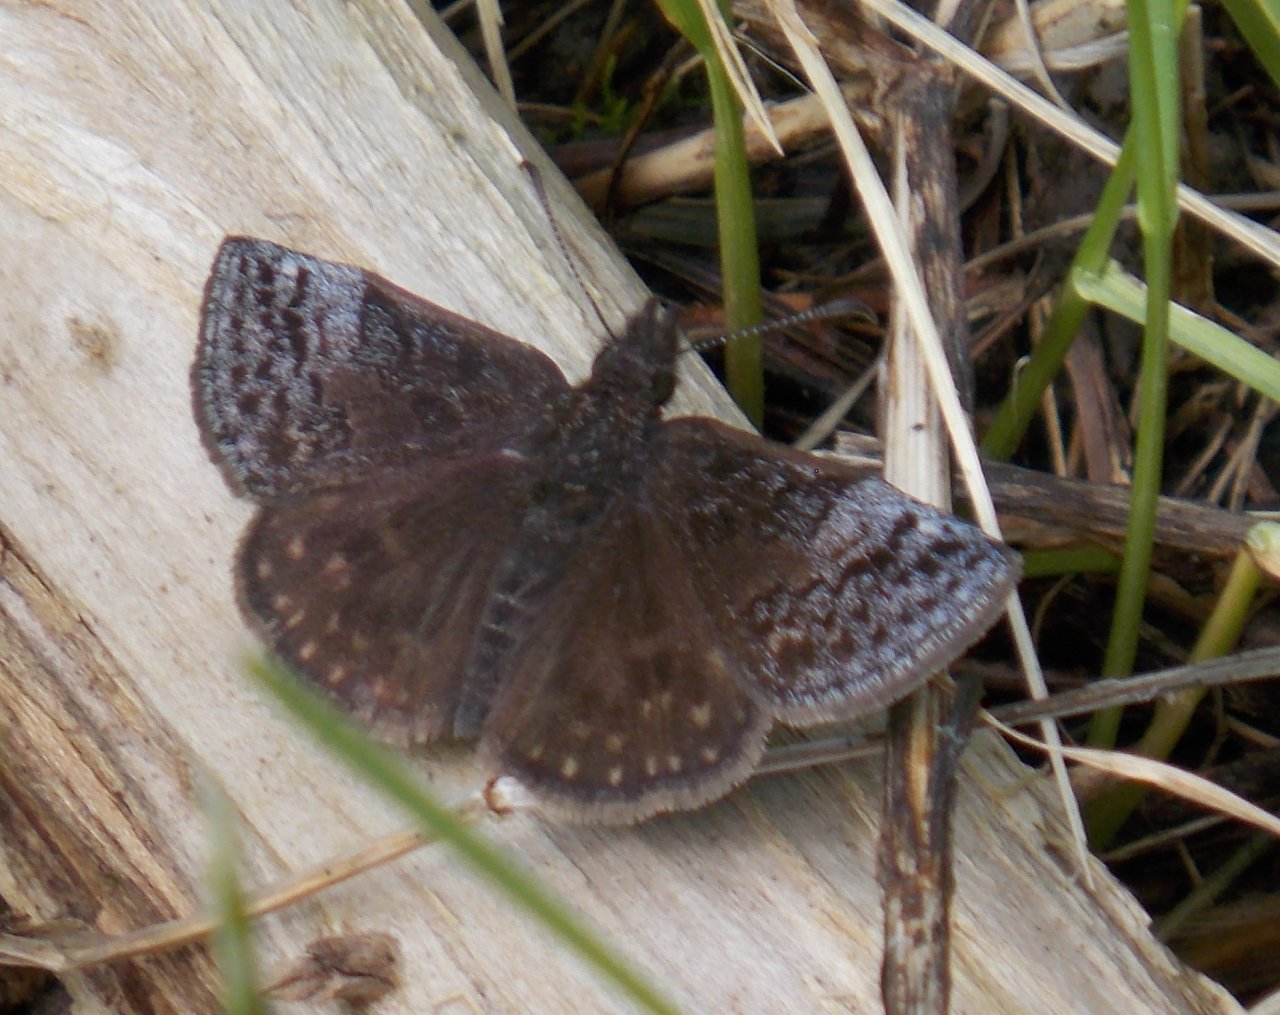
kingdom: Animalia
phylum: Arthropoda
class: Insecta
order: Lepidoptera
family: Hesperiidae
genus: Erynnis
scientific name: Erynnis icelus
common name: Dreamy Duskywing
